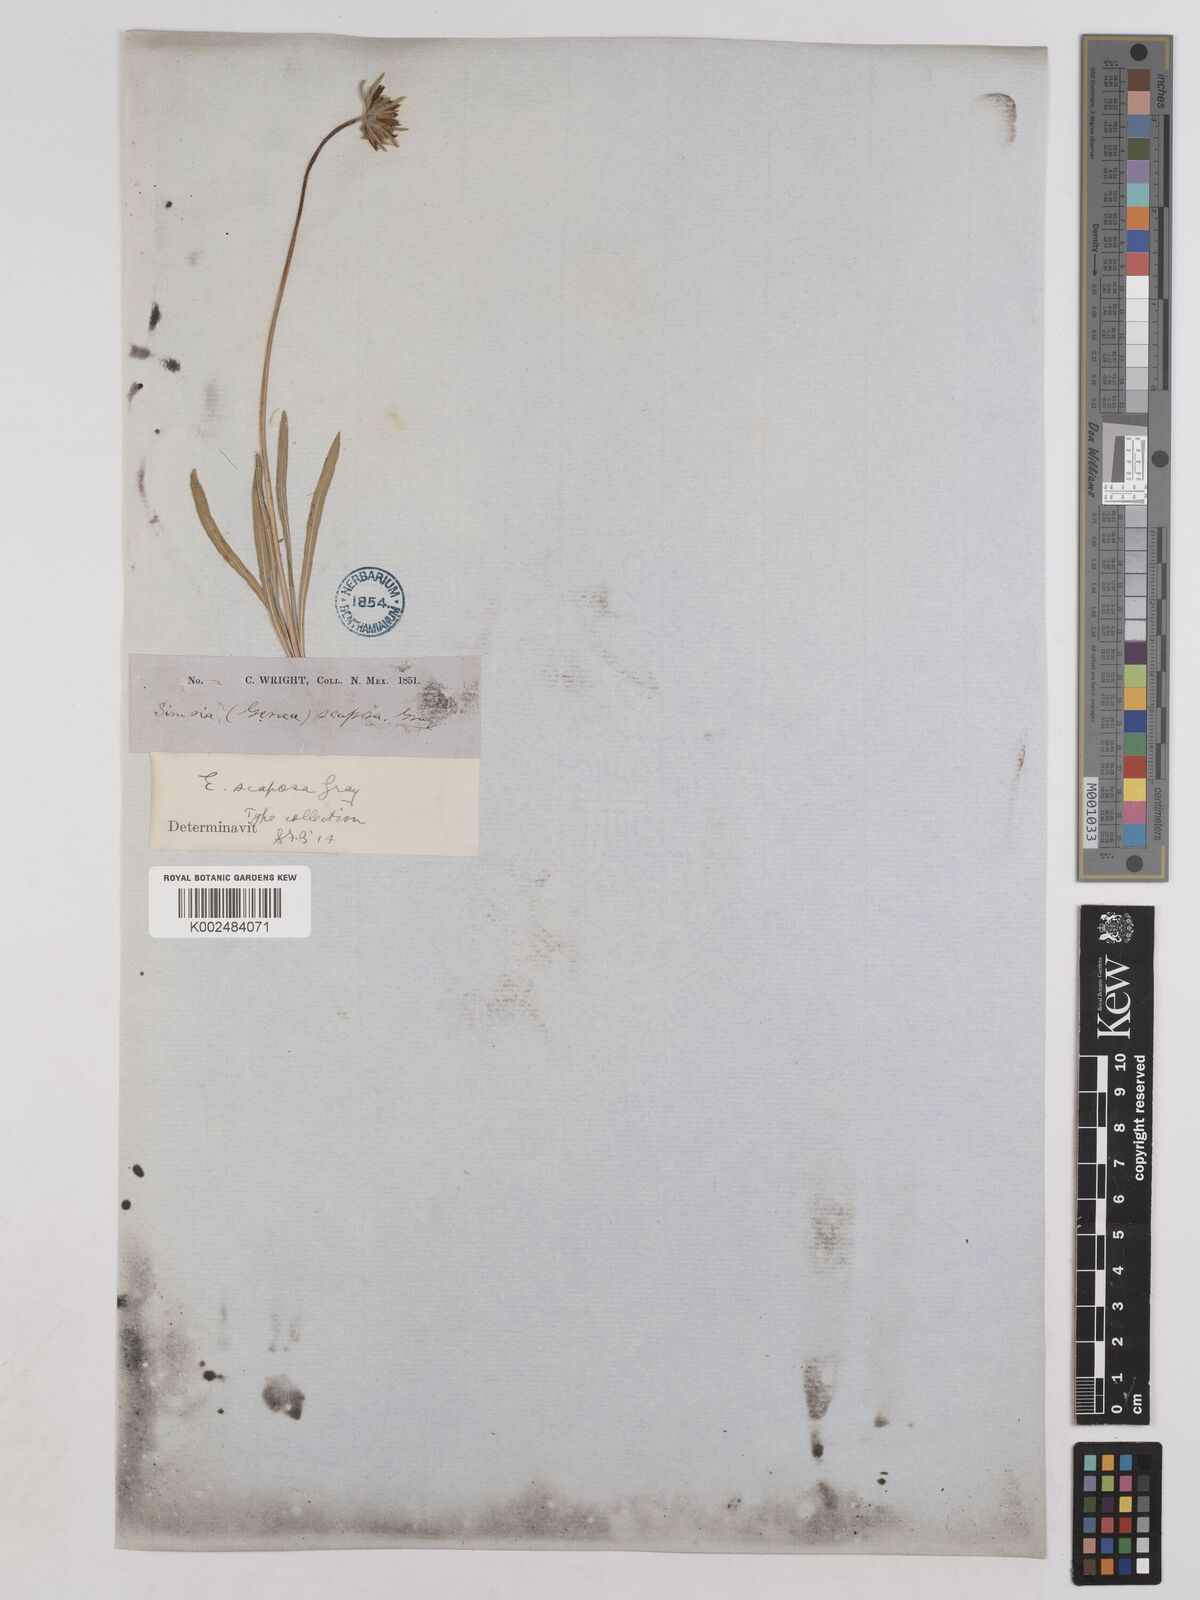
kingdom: Plantae
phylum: Tracheophyta
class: Magnoliopsida
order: Asterales
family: Asteraceae
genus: Encelia
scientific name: Encelia scaposa
